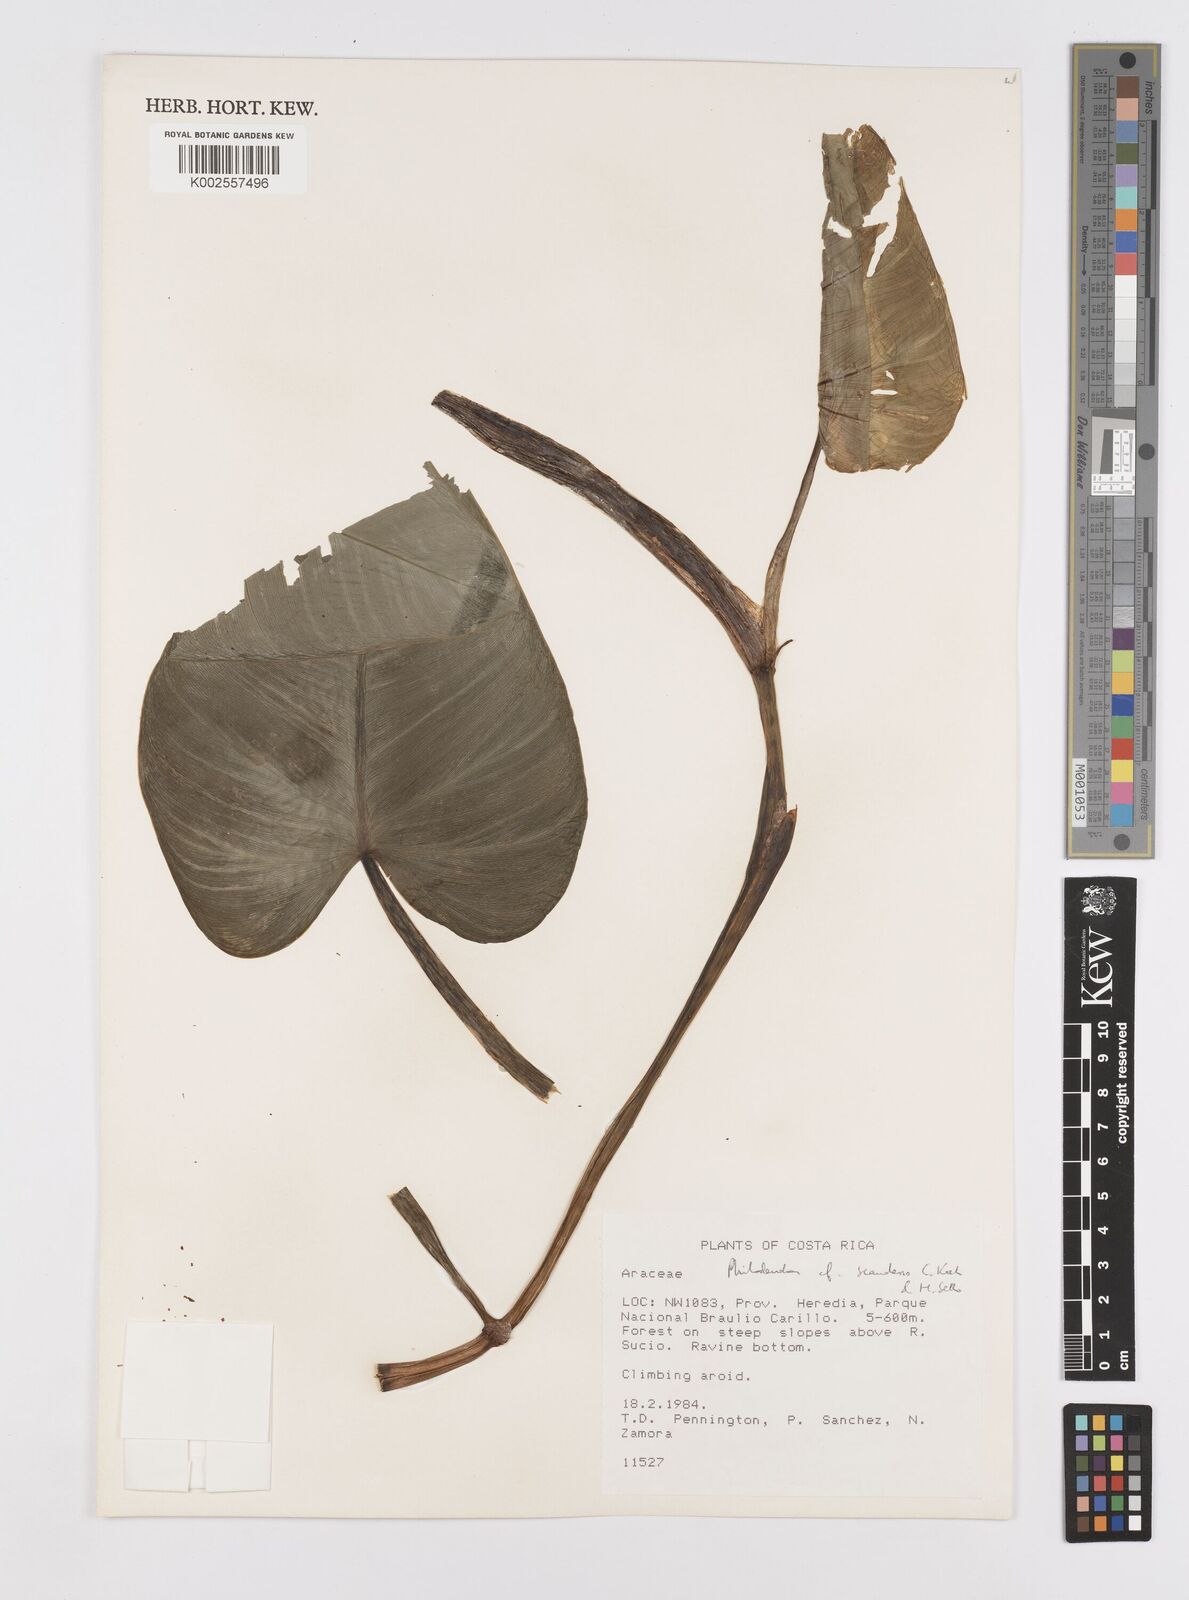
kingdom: Plantae
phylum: Tracheophyta
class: Liliopsida
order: Alismatales
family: Araceae
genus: Philodendron
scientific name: Philodendron hederaceum
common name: Vilevine
